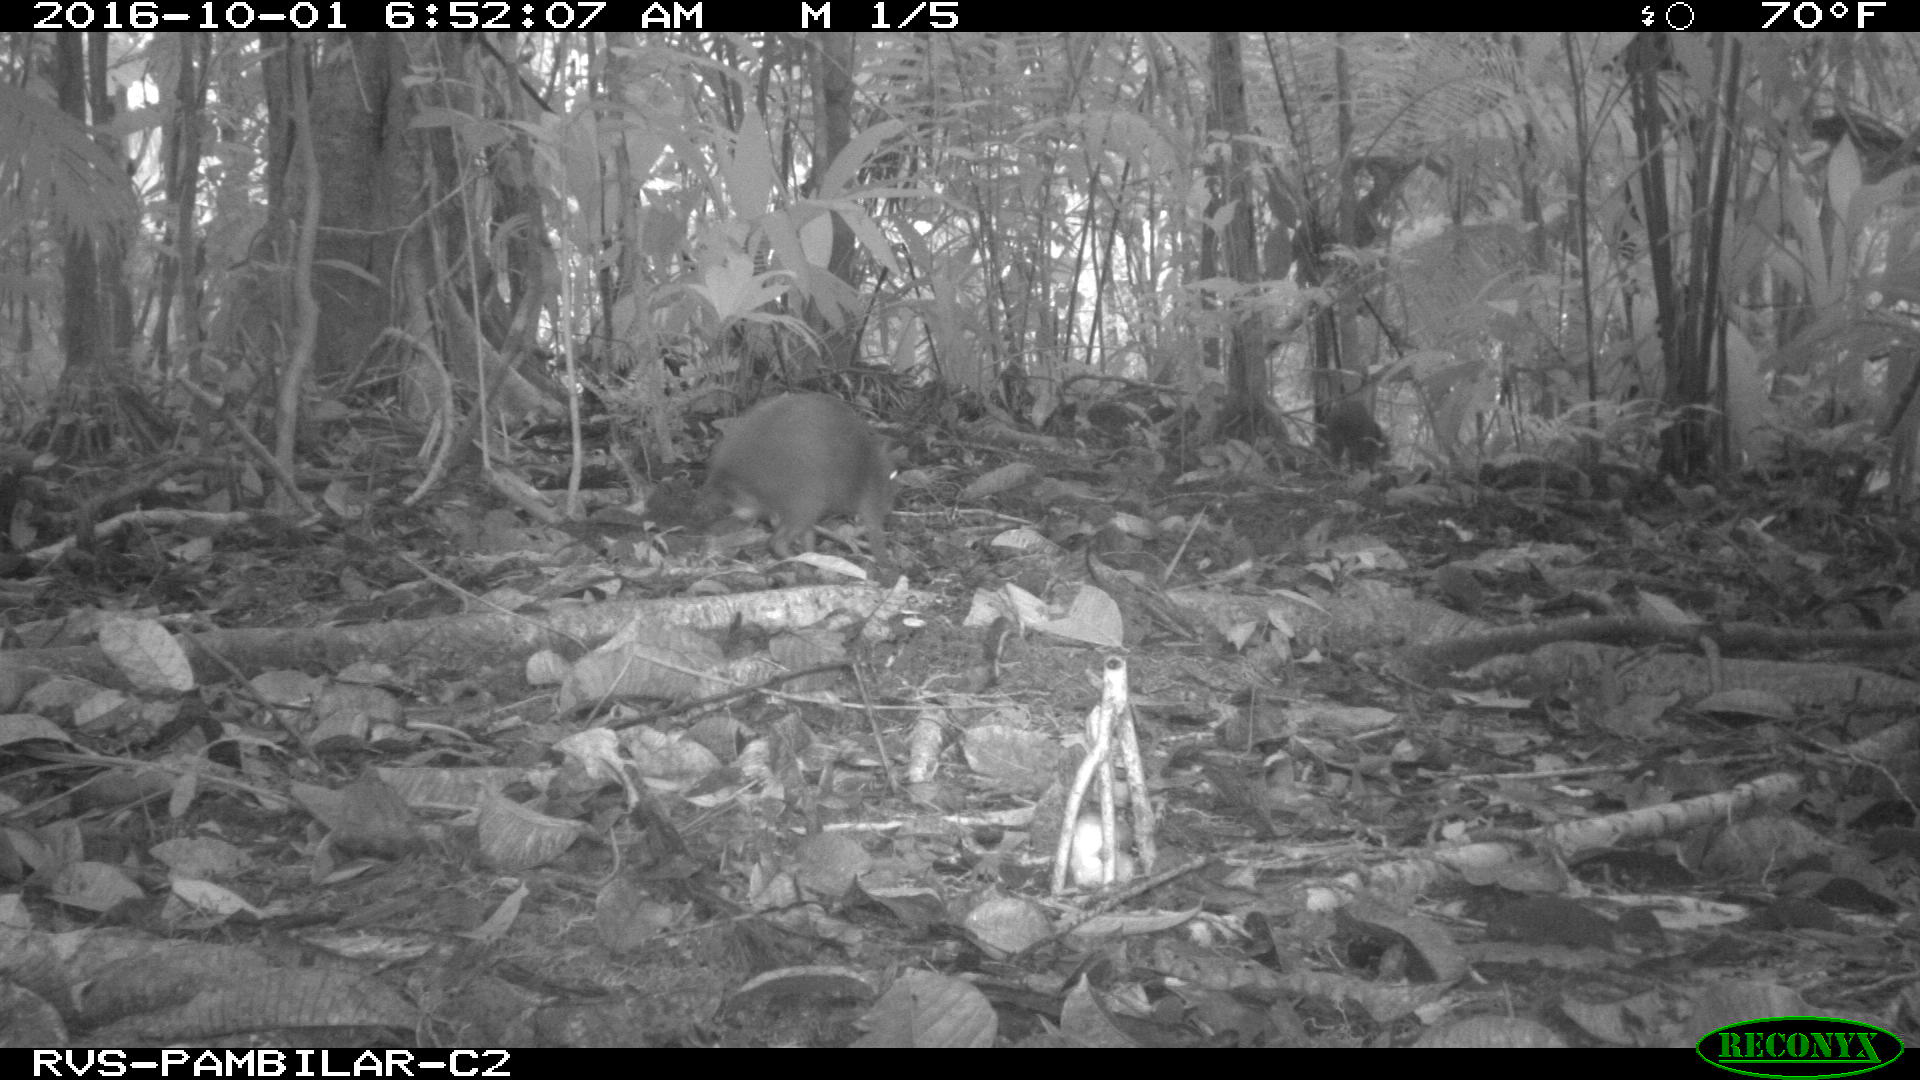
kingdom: Animalia
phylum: Chordata
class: Mammalia
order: Rodentia
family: Dasyproctidae
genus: Dasyprocta
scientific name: Dasyprocta punctata
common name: Central american agouti
